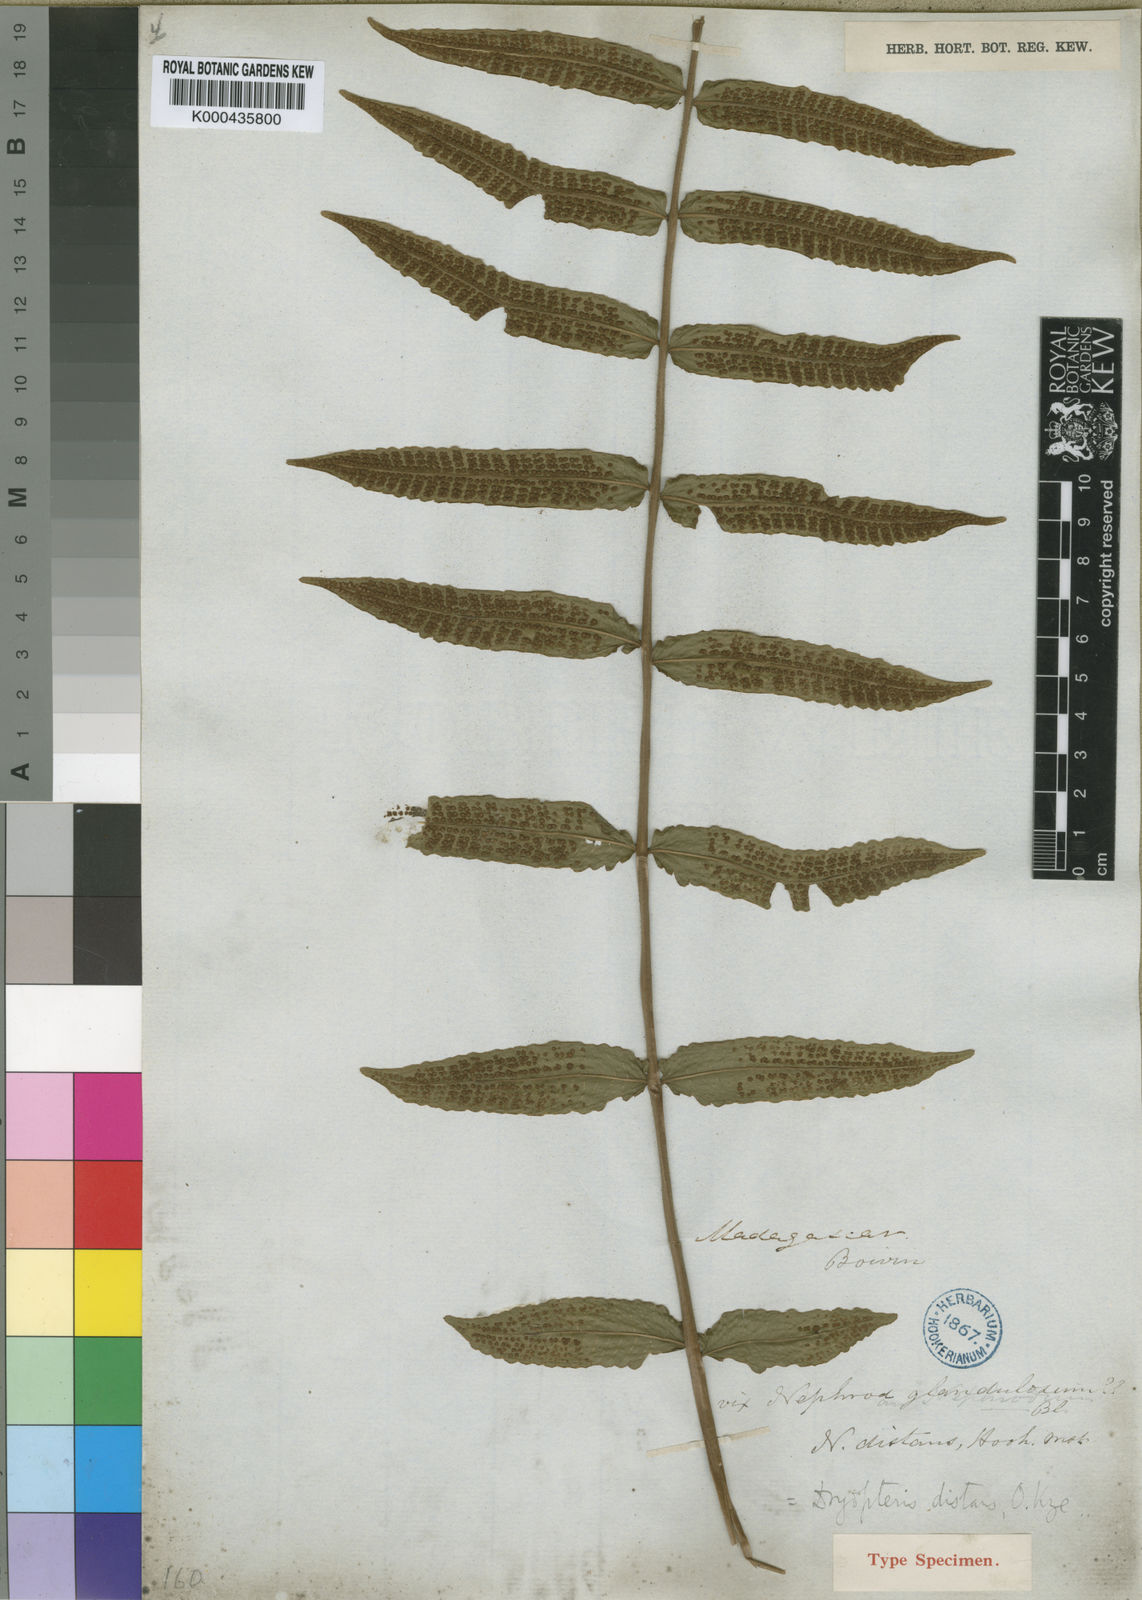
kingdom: Plantae
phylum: Tracheophyta
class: Polypodiopsida
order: Polypodiales
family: Thelypteridaceae
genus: Christella
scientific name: Christella distans
